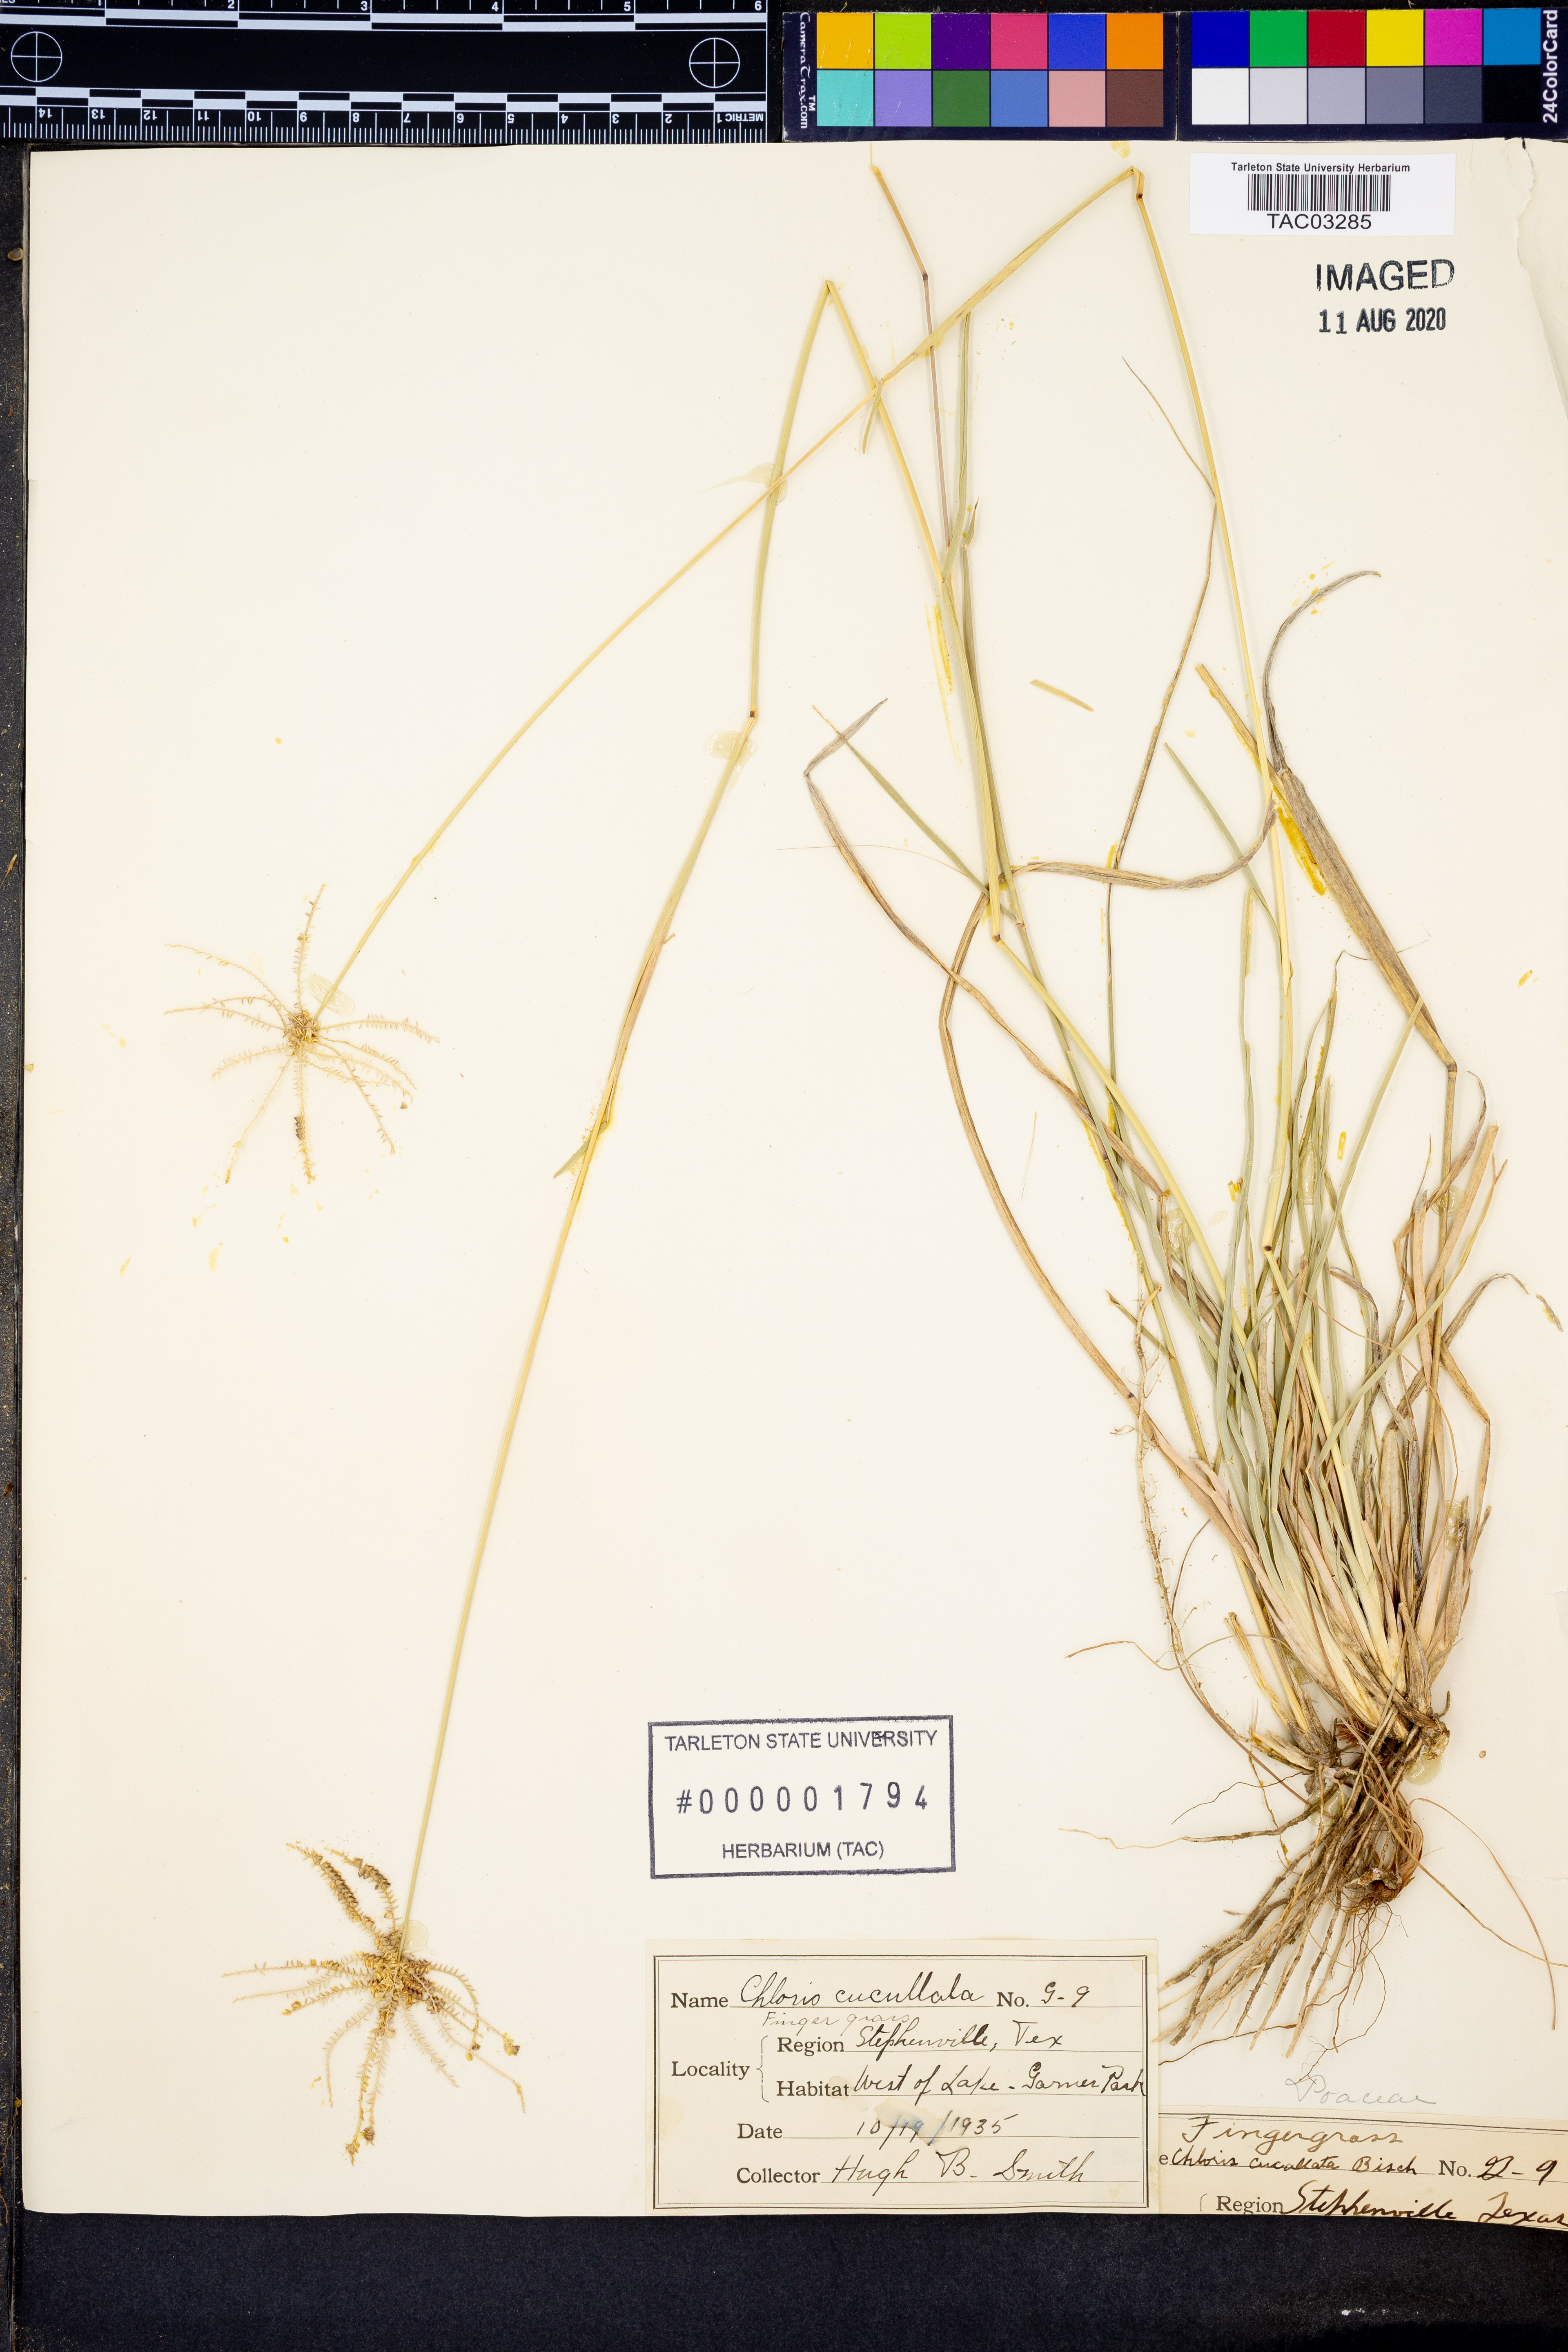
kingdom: Plantae
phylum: Tracheophyta
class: Liliopsida
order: Poales
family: Poaceae
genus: Chloris
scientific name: Chloris cucullata
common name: Hooded windmill grass
